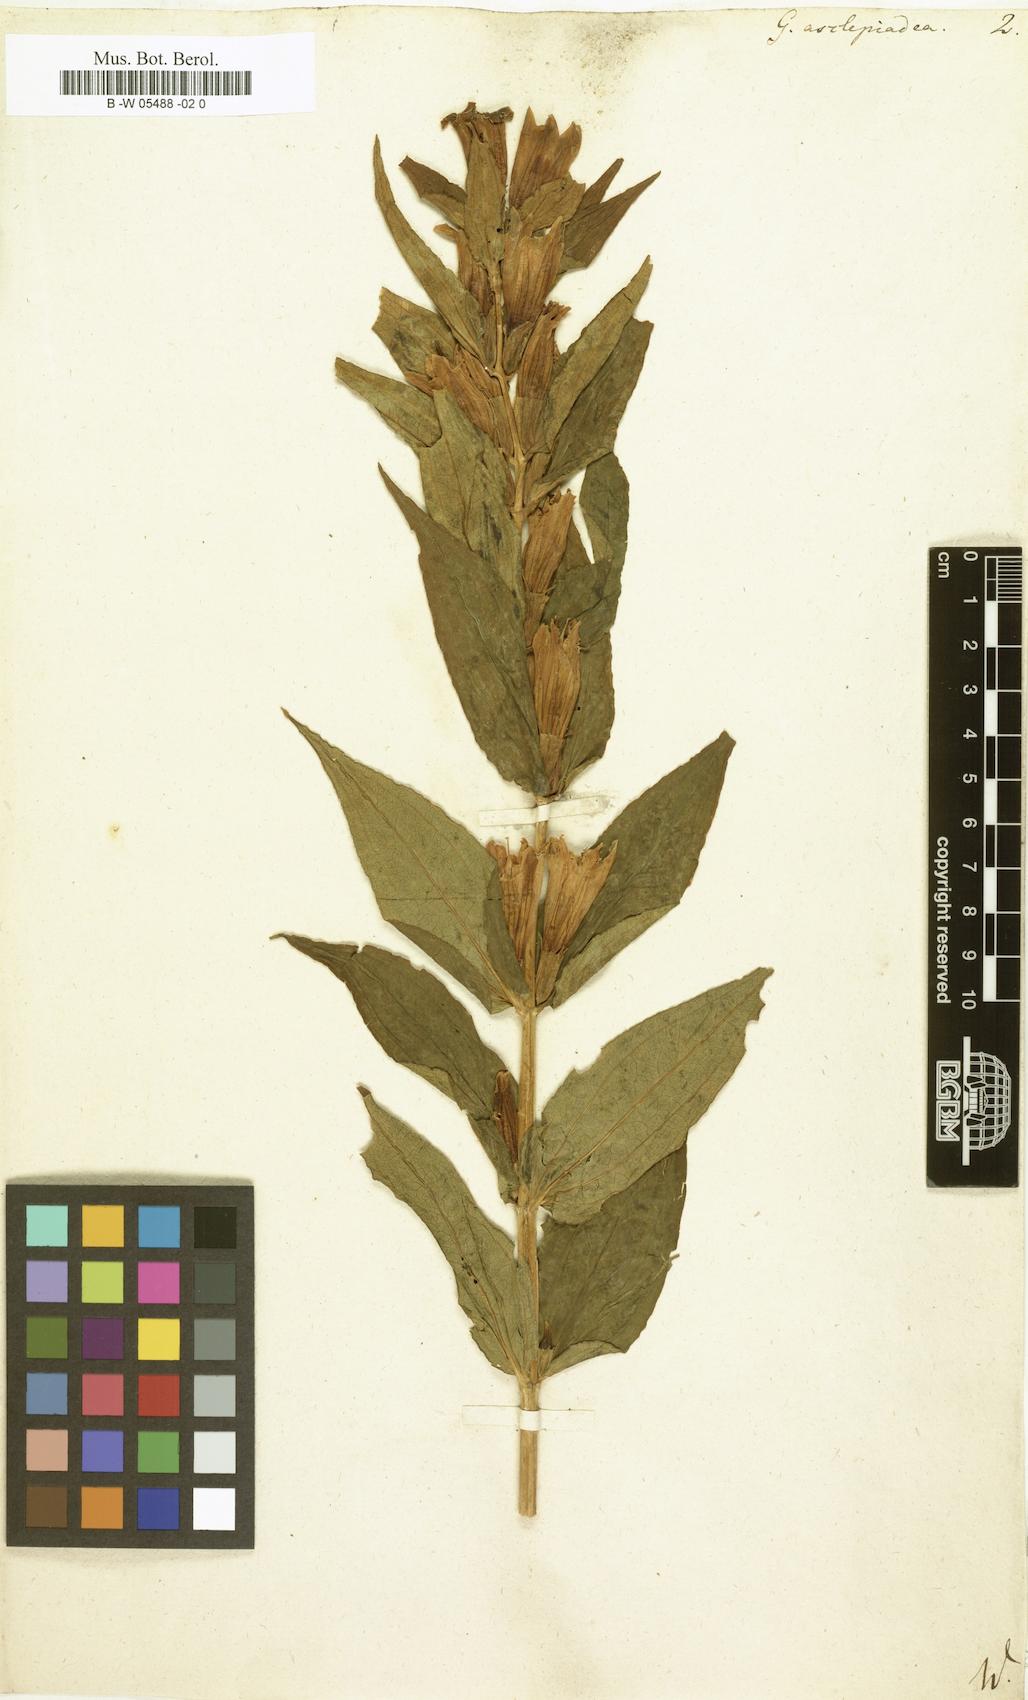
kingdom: Plantae
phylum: Tracheophyta
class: Magnoliopsida
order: Gentianales
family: Gentianaceae
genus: Gentiana
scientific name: Gentiana asclepiadea
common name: Willow gentian
